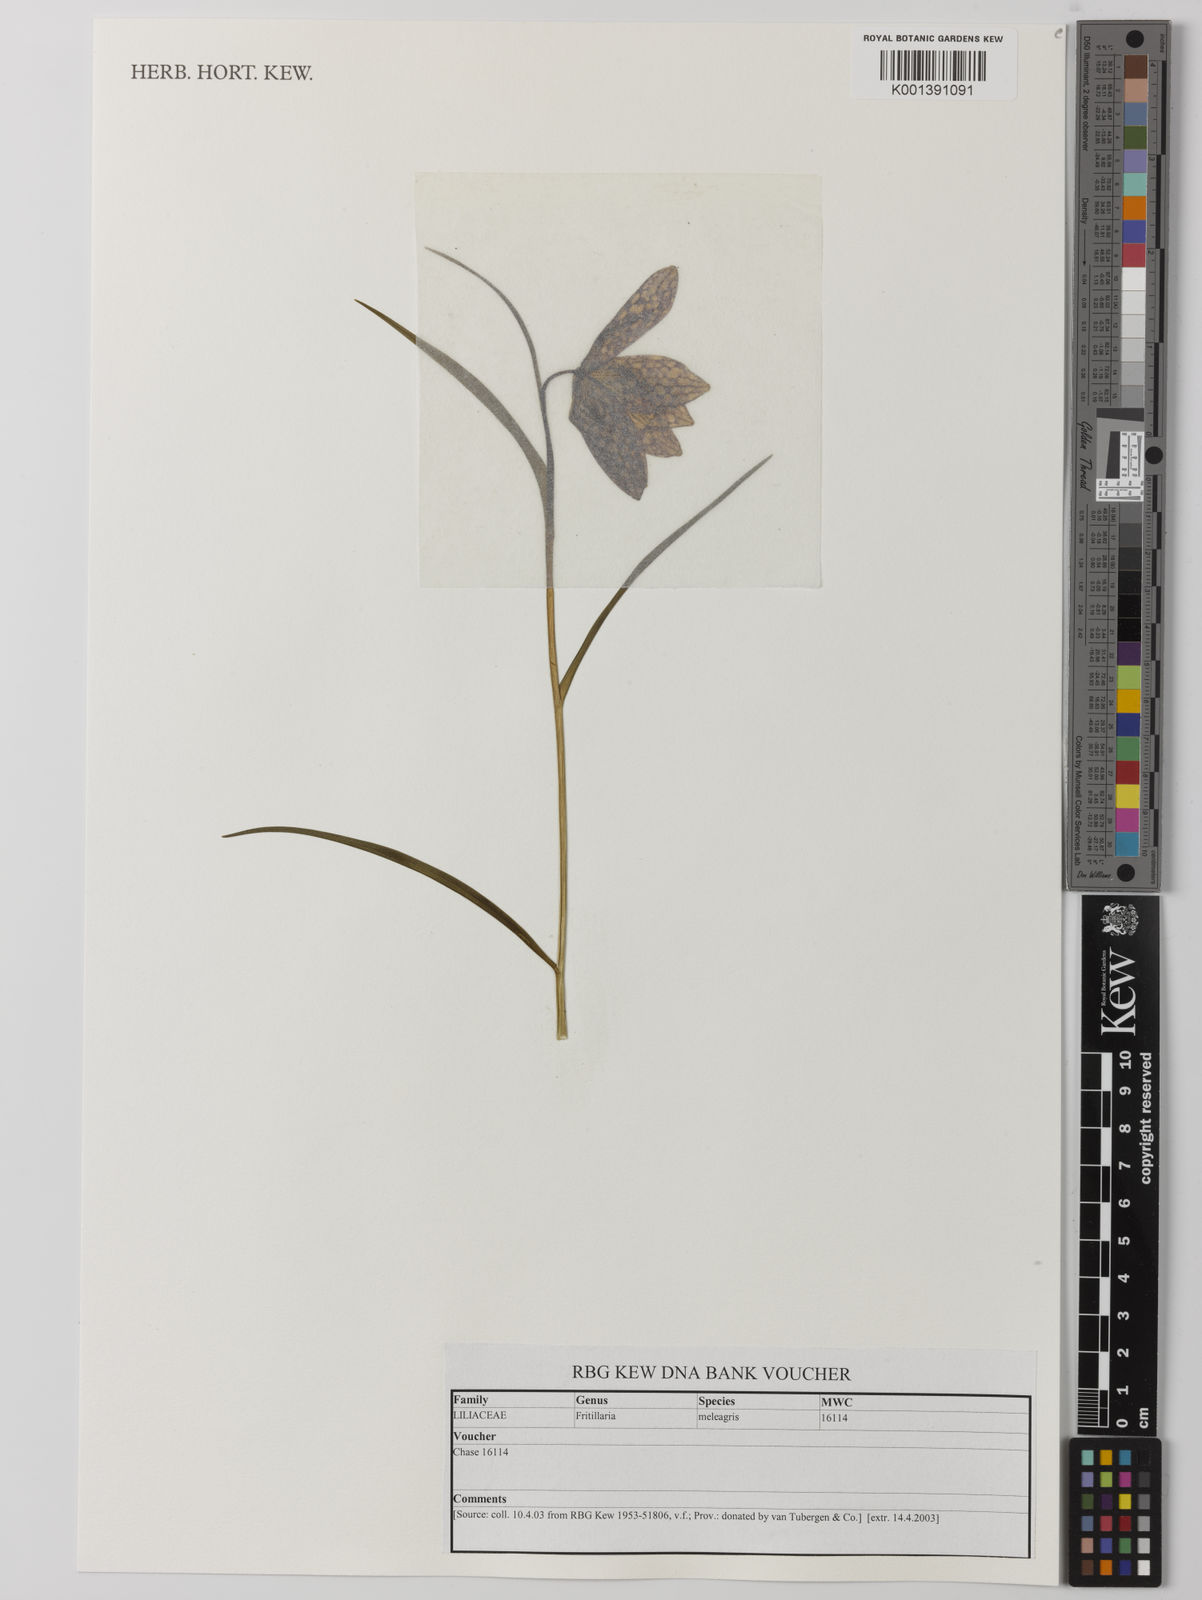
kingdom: Plantae
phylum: Tracheophyta
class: Liliopsida
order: Liliales
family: Liliaceae
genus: Fritillaria
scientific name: Fritillaria meleagris
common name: Fritillary
